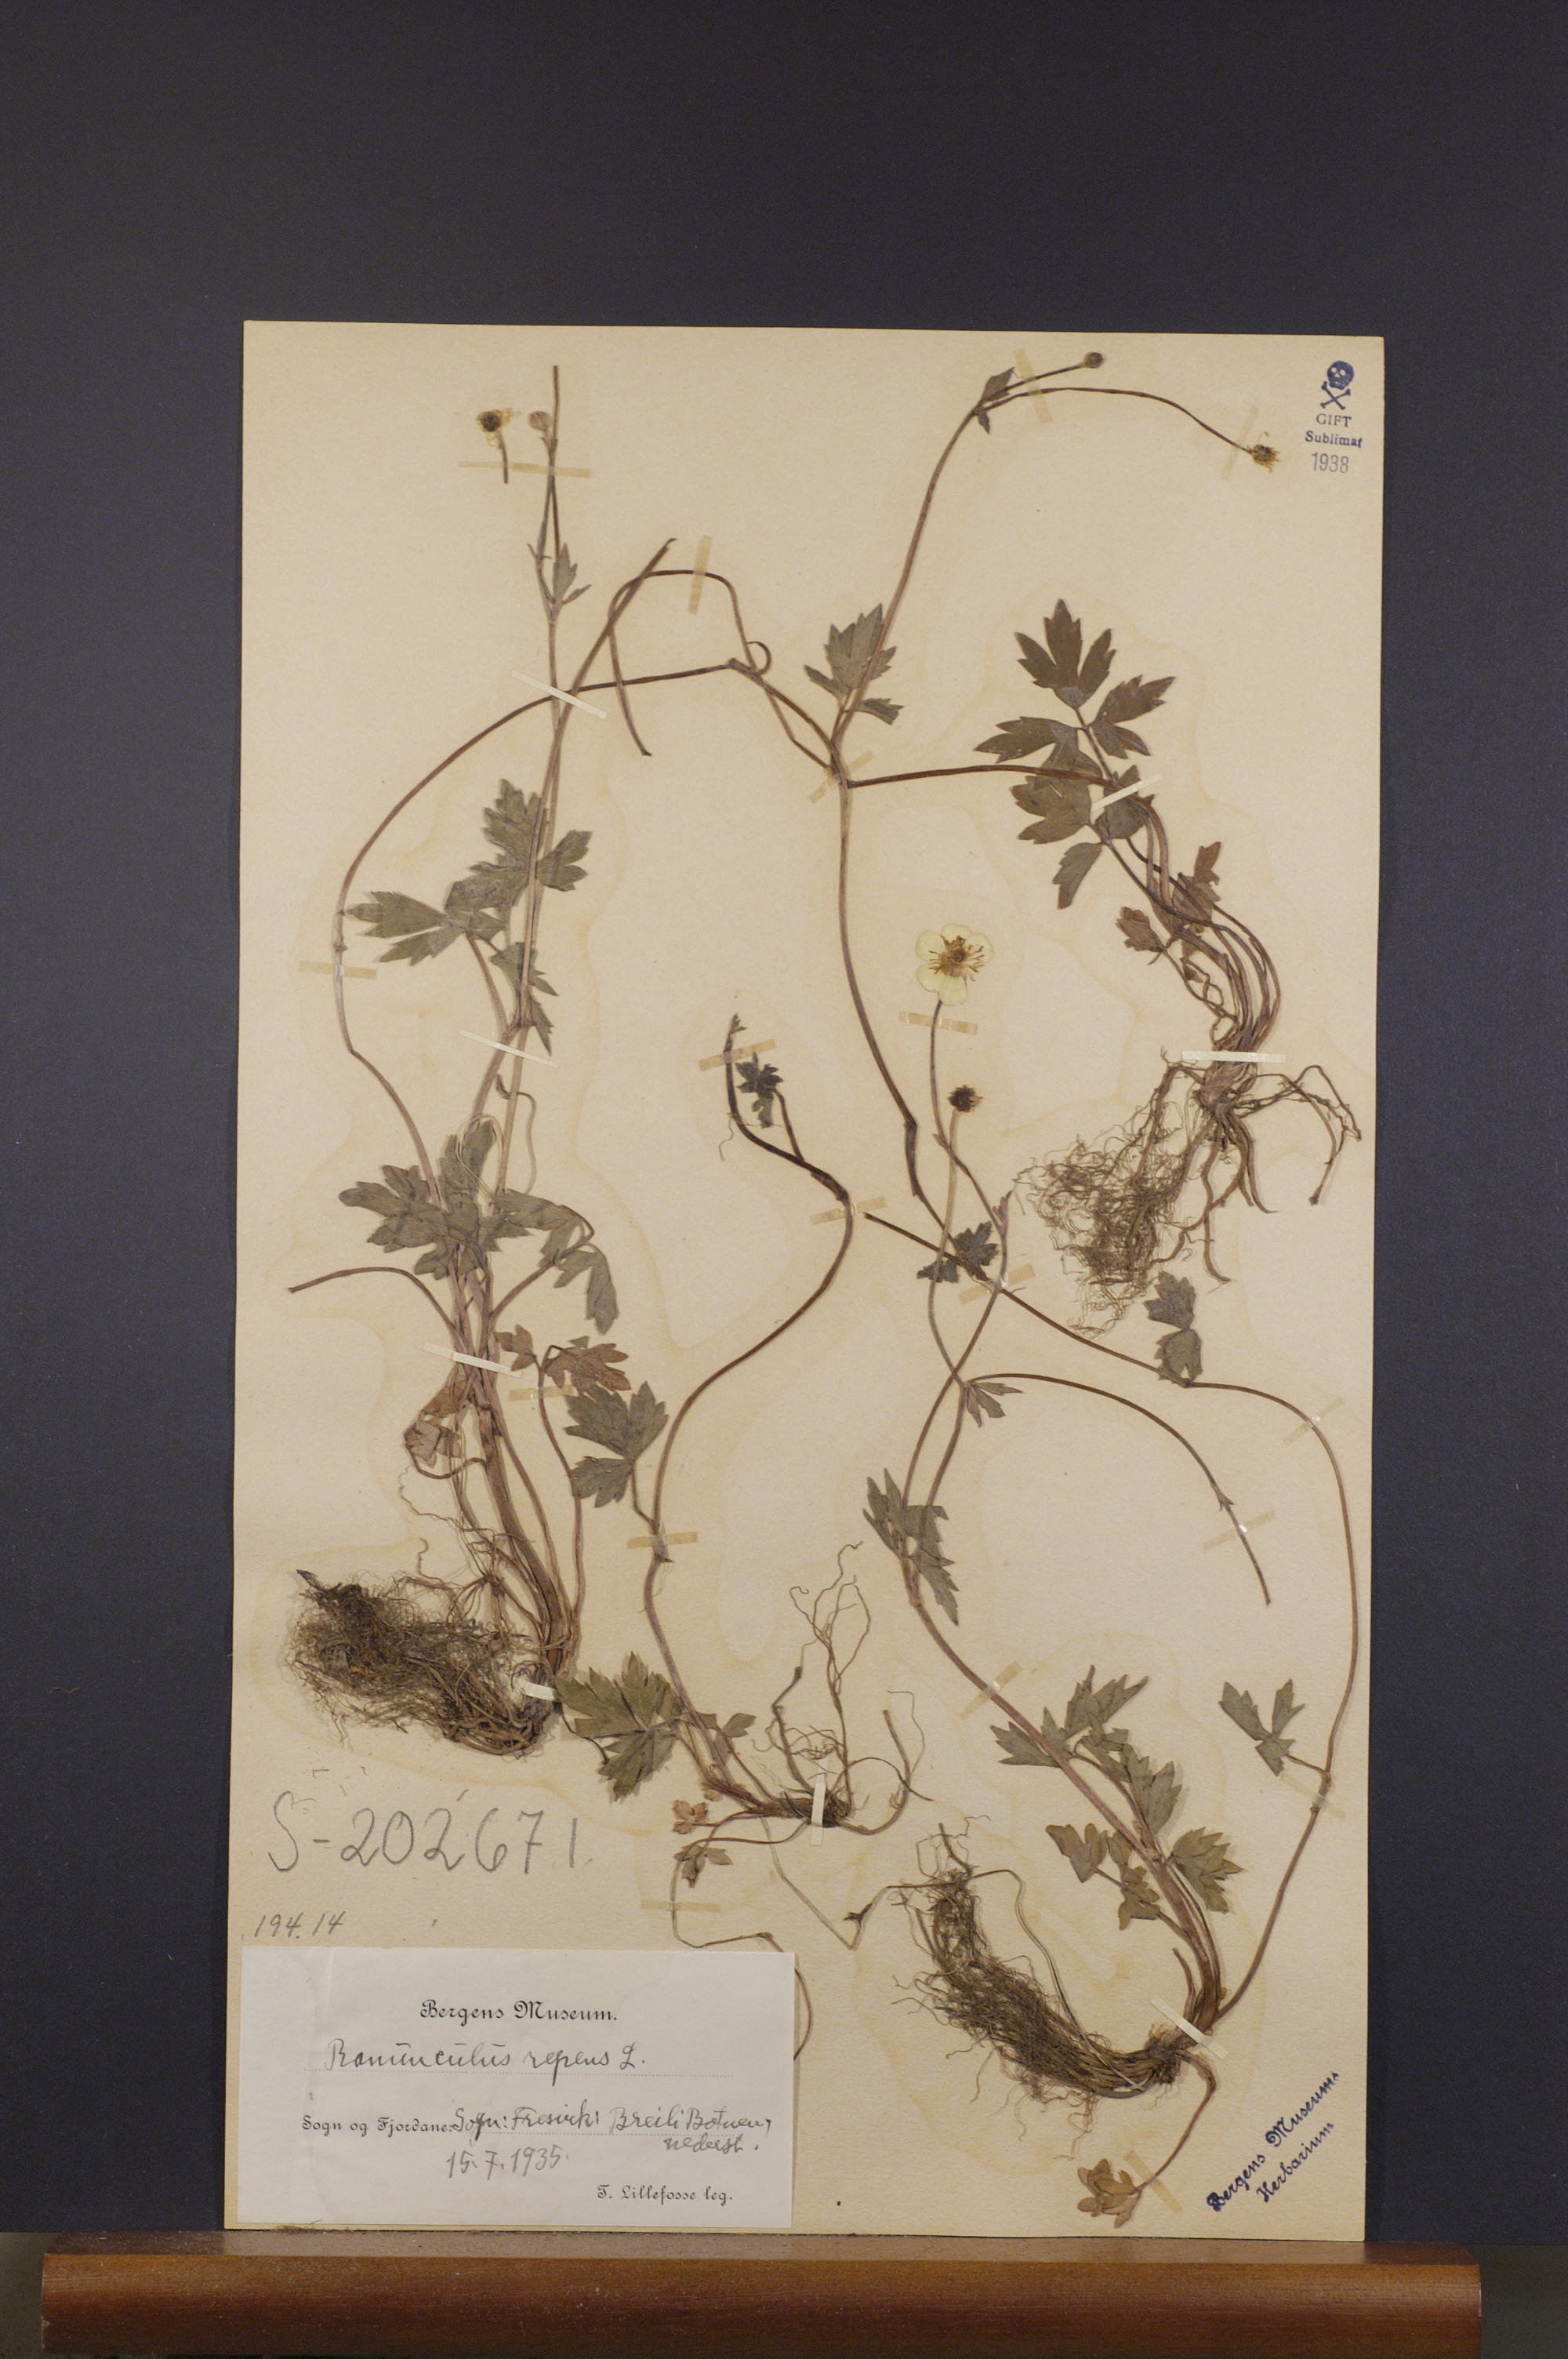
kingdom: Plantae
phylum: Tracheophyta
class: Magnoliopsida
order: Ranunculales
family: Ranunculaceae
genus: Ranunculus
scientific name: Ranunculus repens
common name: Creeping buttercup
